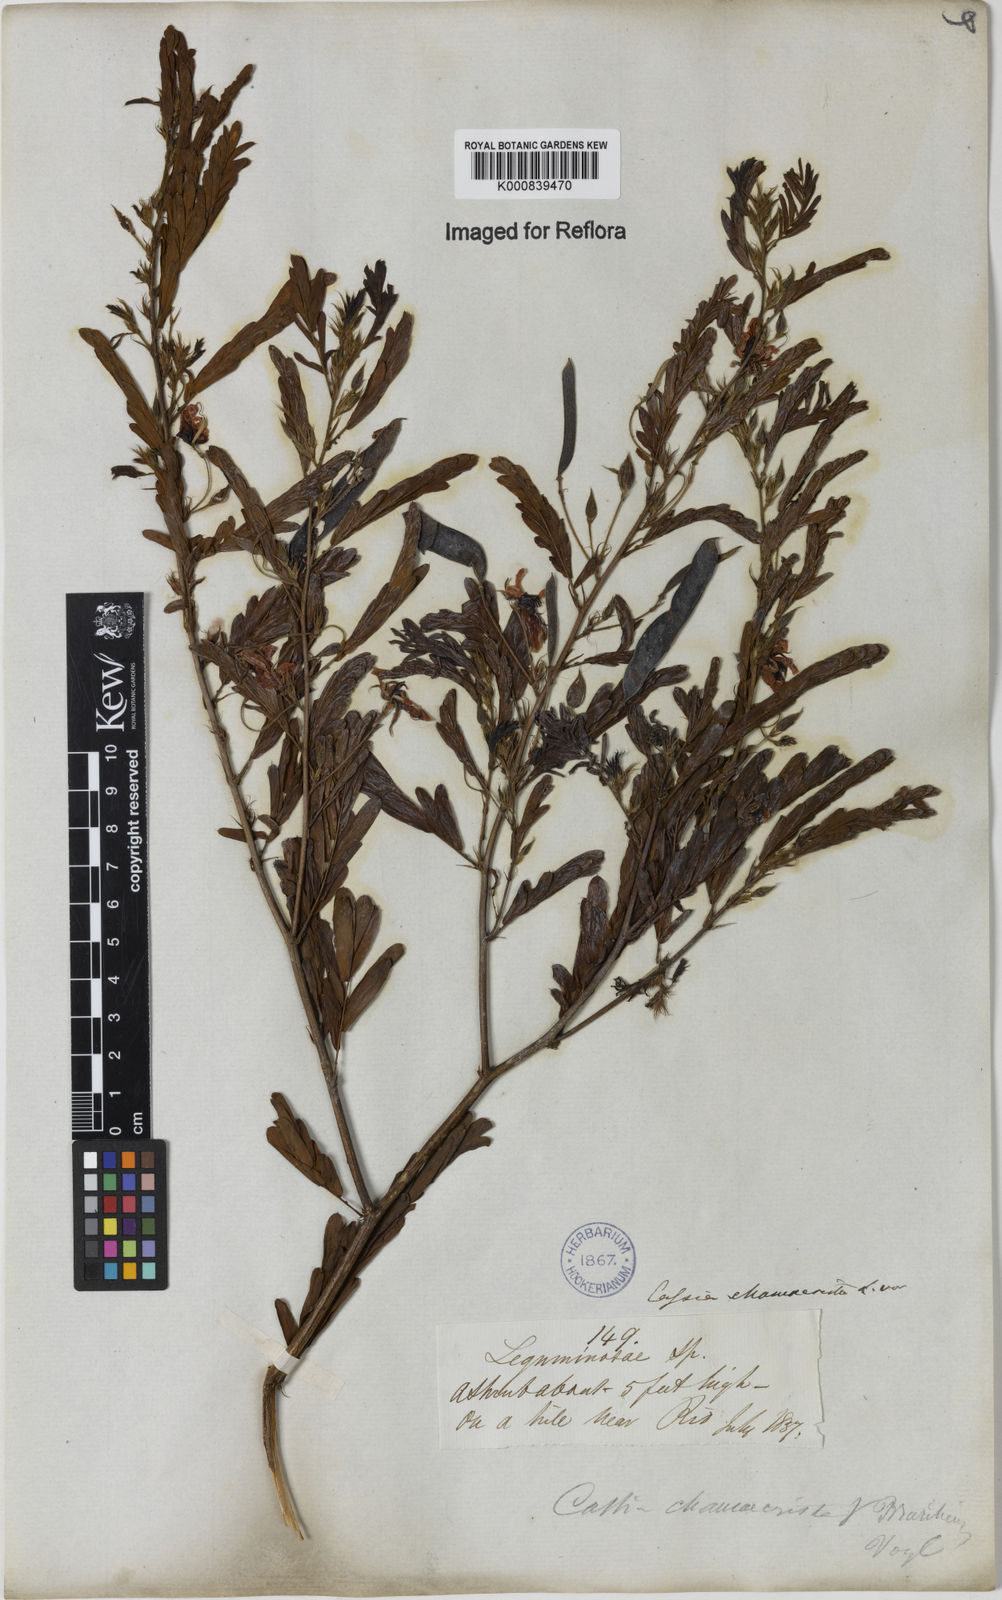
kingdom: Plantae
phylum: Tracheophyta
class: Magnoliopsida
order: Fabales
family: Fabaceae
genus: Chamaecrista
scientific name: Chamaecrista glandulosa
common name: Wild peas
